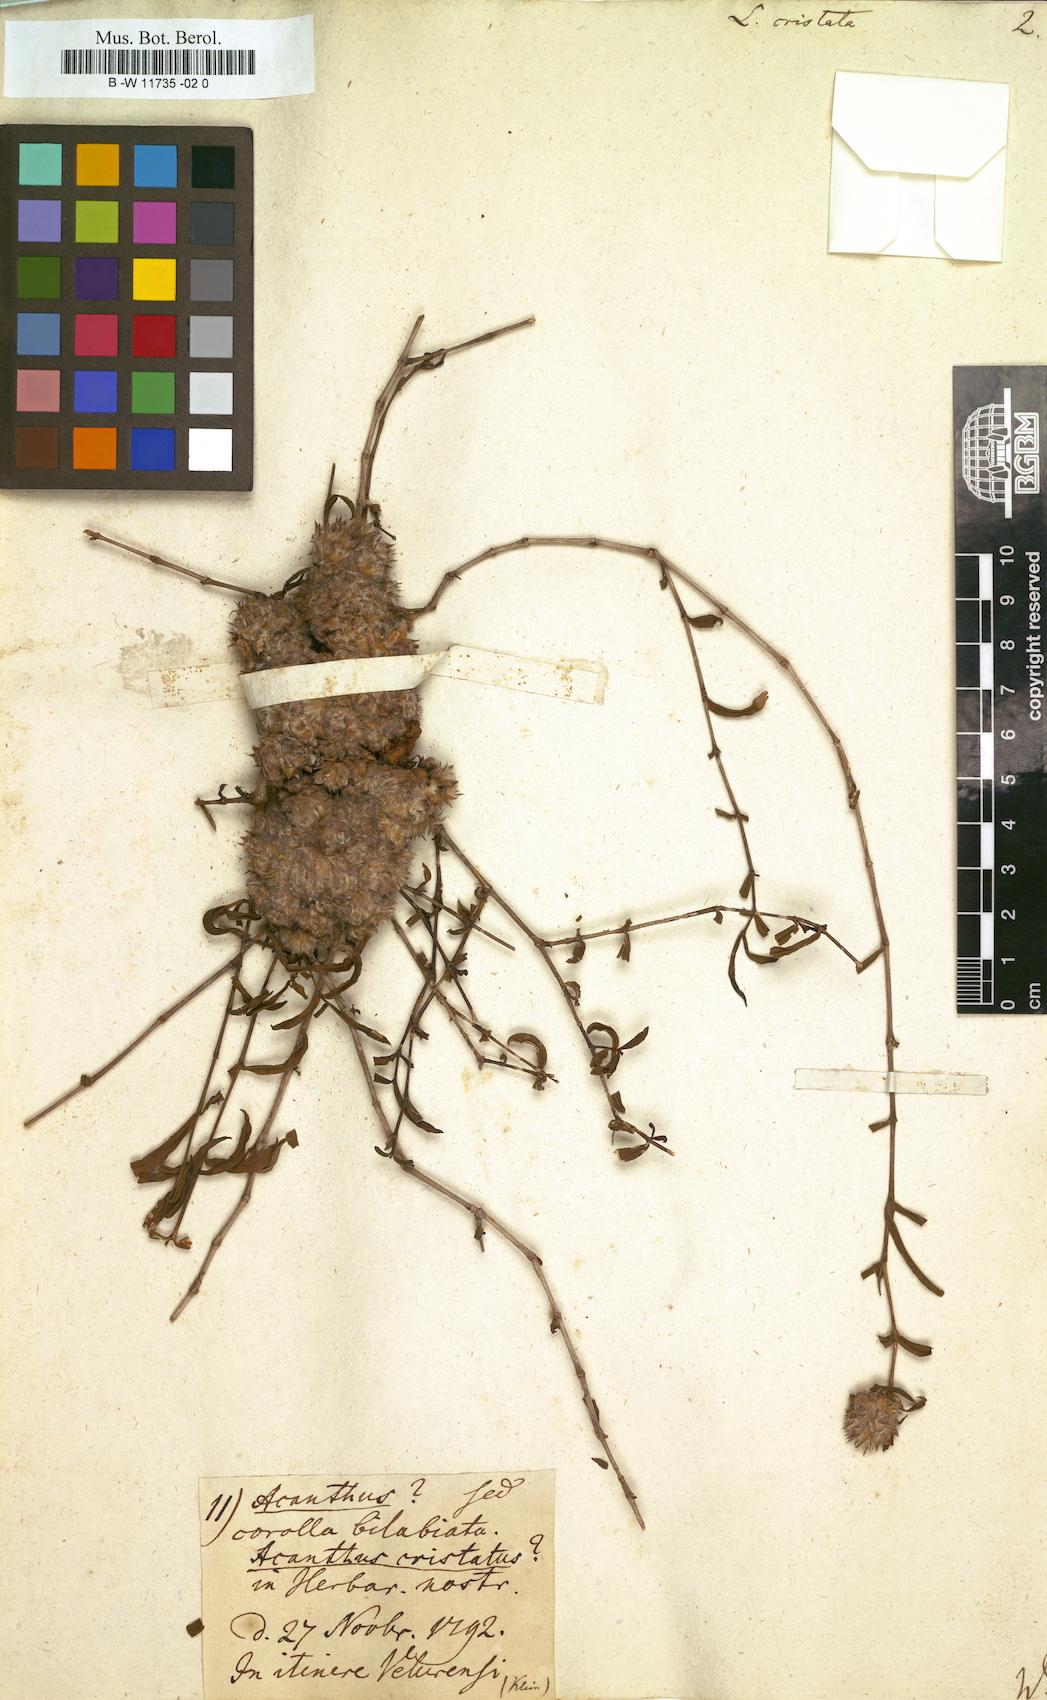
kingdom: Plantae
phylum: Tracheophyta
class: Magnoliopsida
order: Lamiales
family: Acanthaceae
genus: Lepidagathis
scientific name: Lepidagathis cristata
